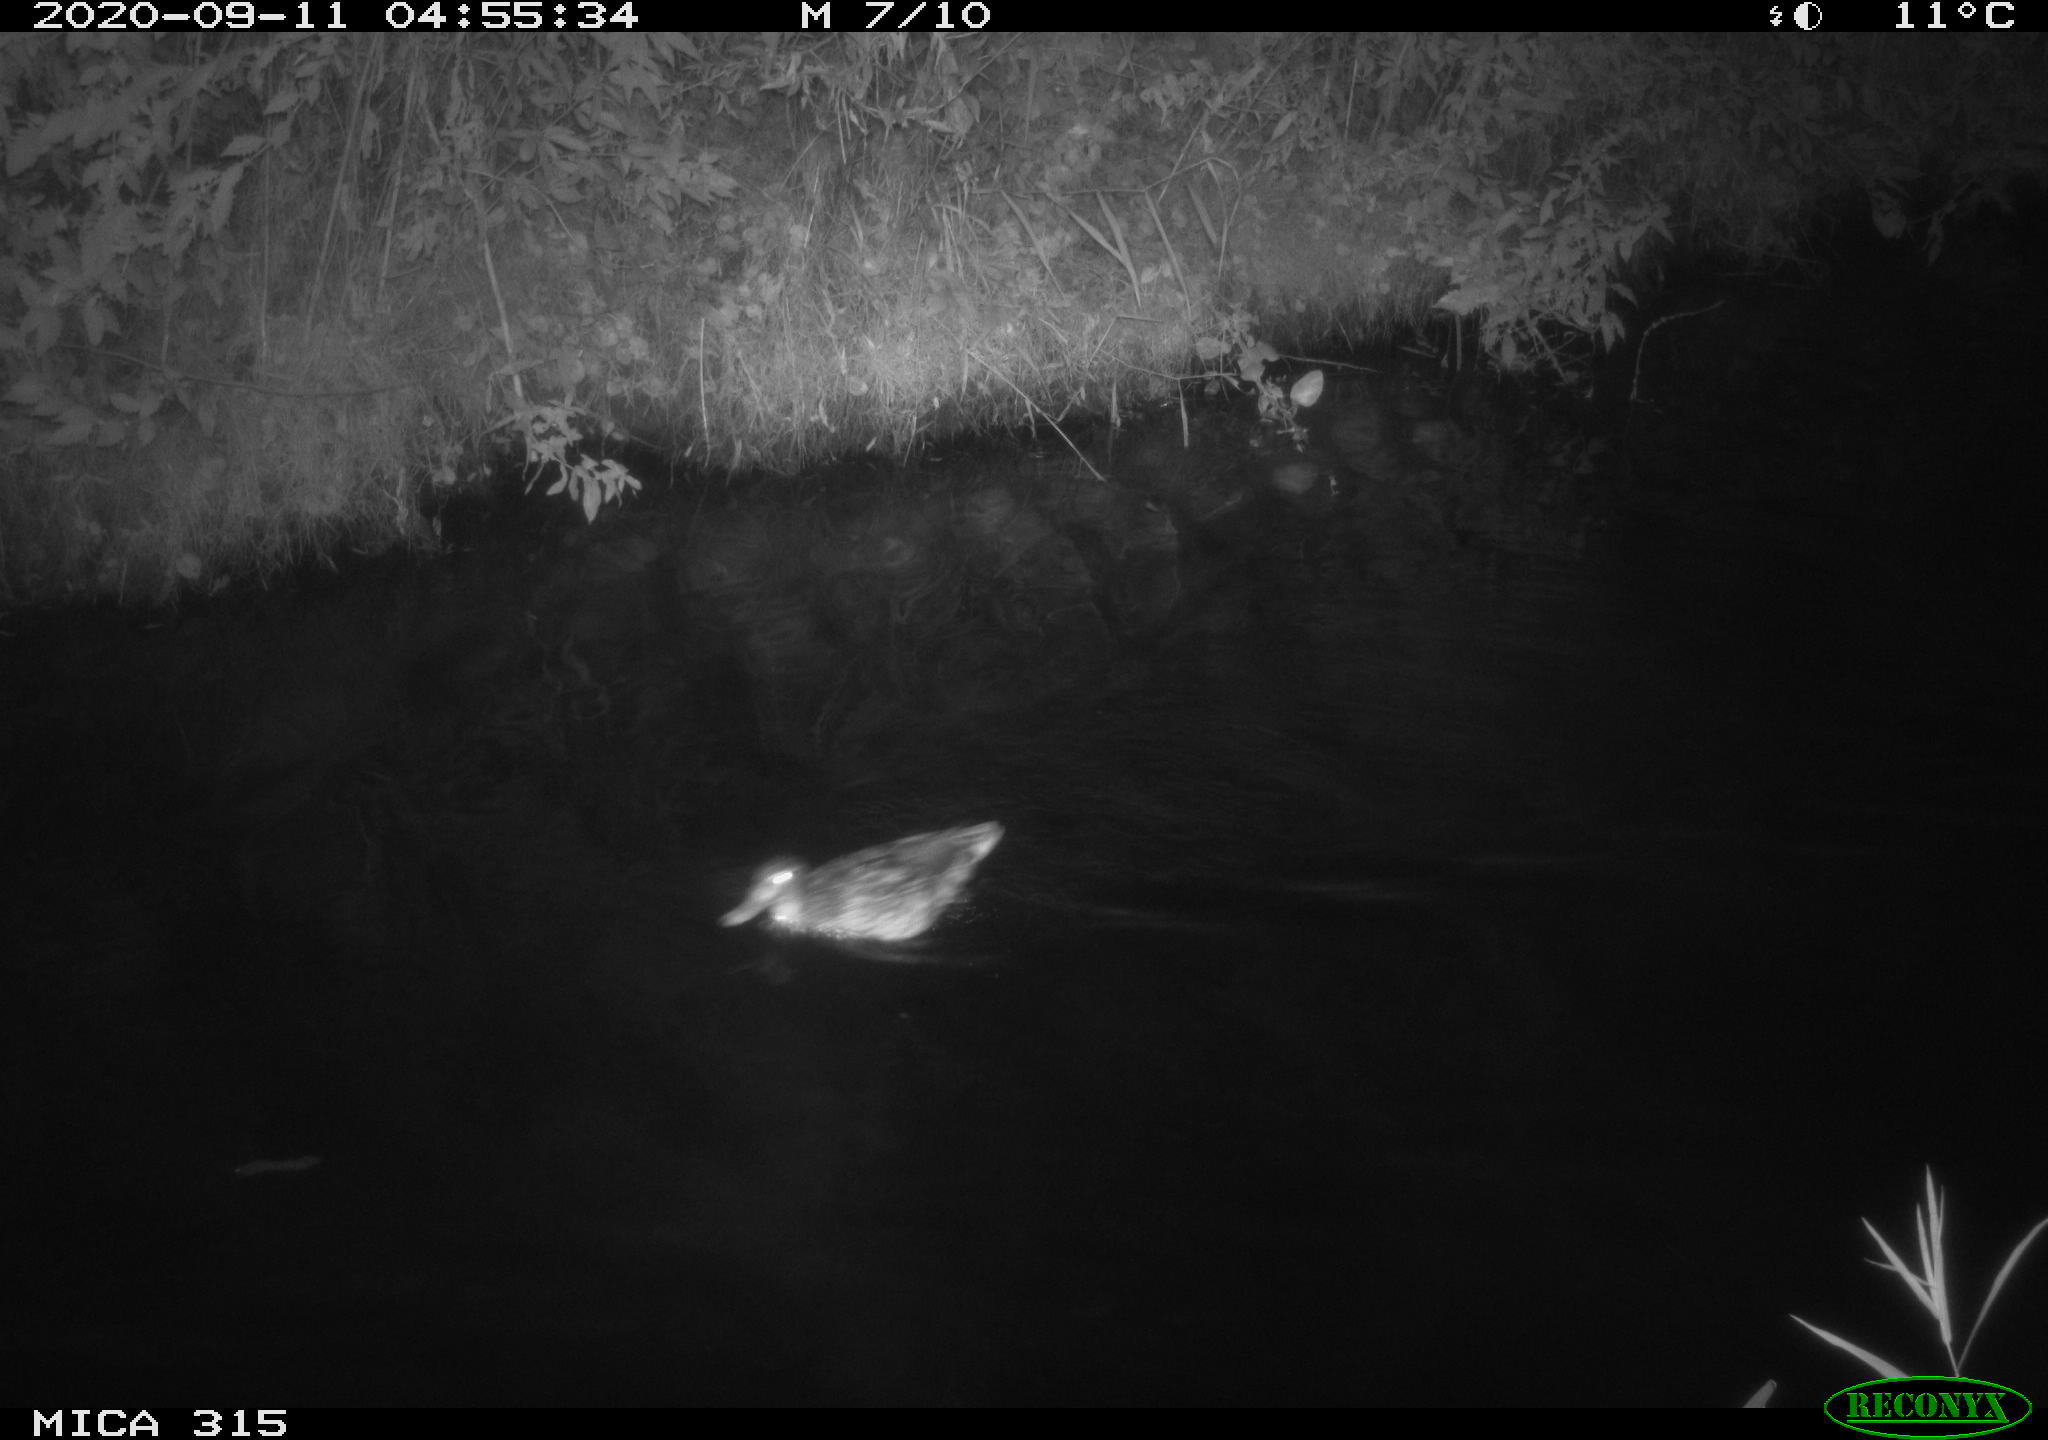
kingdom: Animalia
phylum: Chordata
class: Aves
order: Anseriformes
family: Anatidae
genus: Anas
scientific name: Anas platyrhynchos
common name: Mallard
